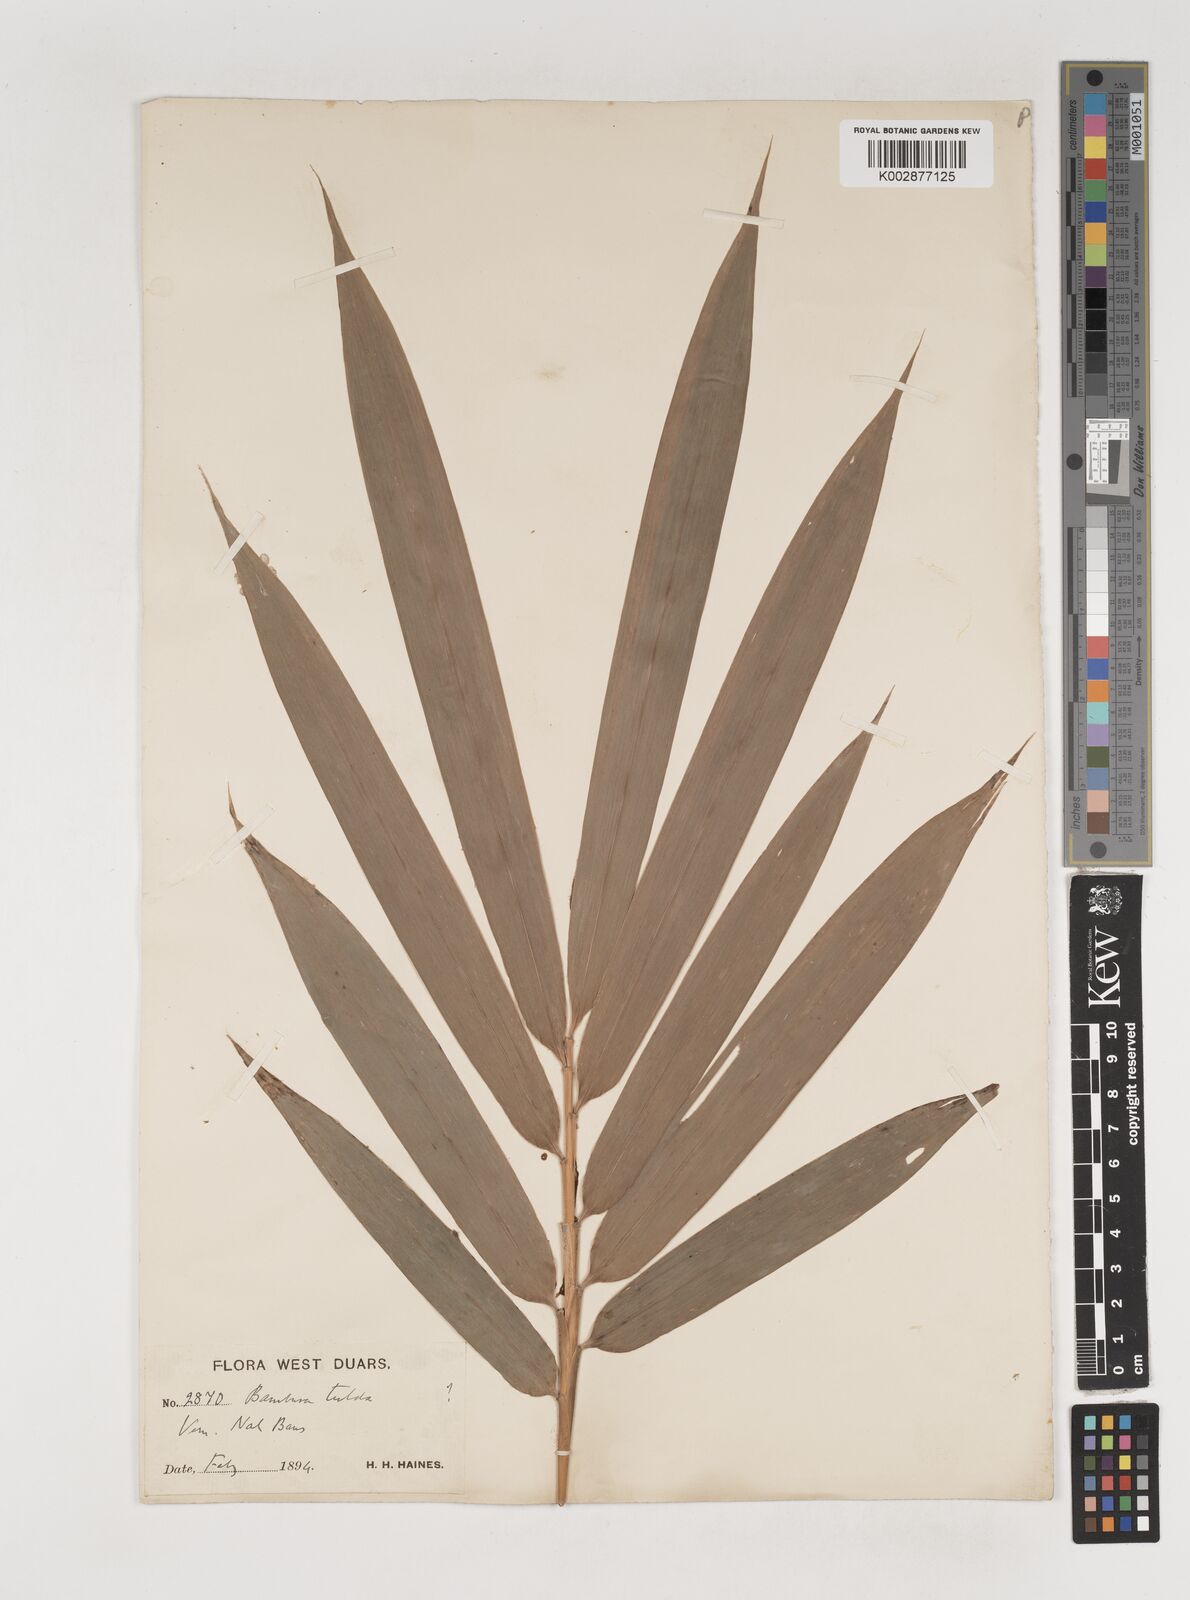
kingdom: Plantae
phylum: Tracheophyta
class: Liliopsida
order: Poales
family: Poaceae
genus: Bambusa
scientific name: Bambusa
